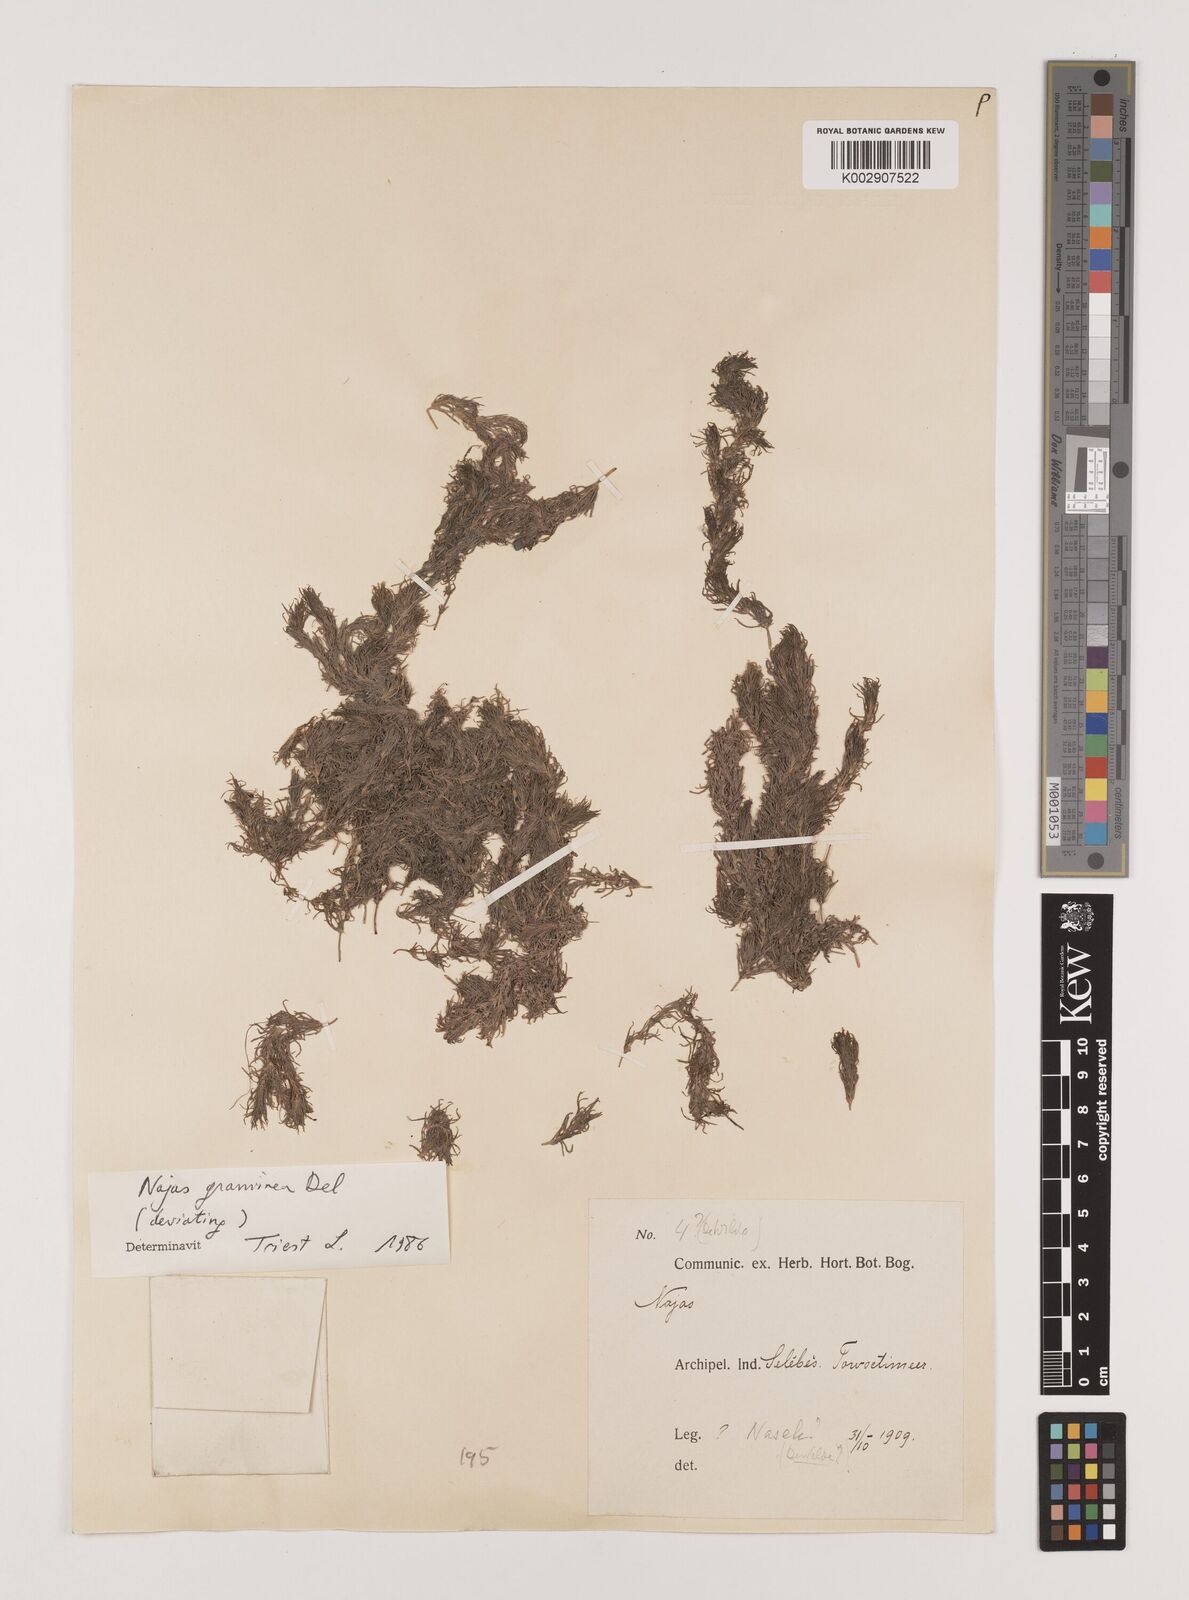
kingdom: Plantae
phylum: Tracheophyta
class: Liliopsida
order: Alismatales
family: Hydrocharitaceae
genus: Najas
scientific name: Najas graminea
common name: Ricefield waternymph
